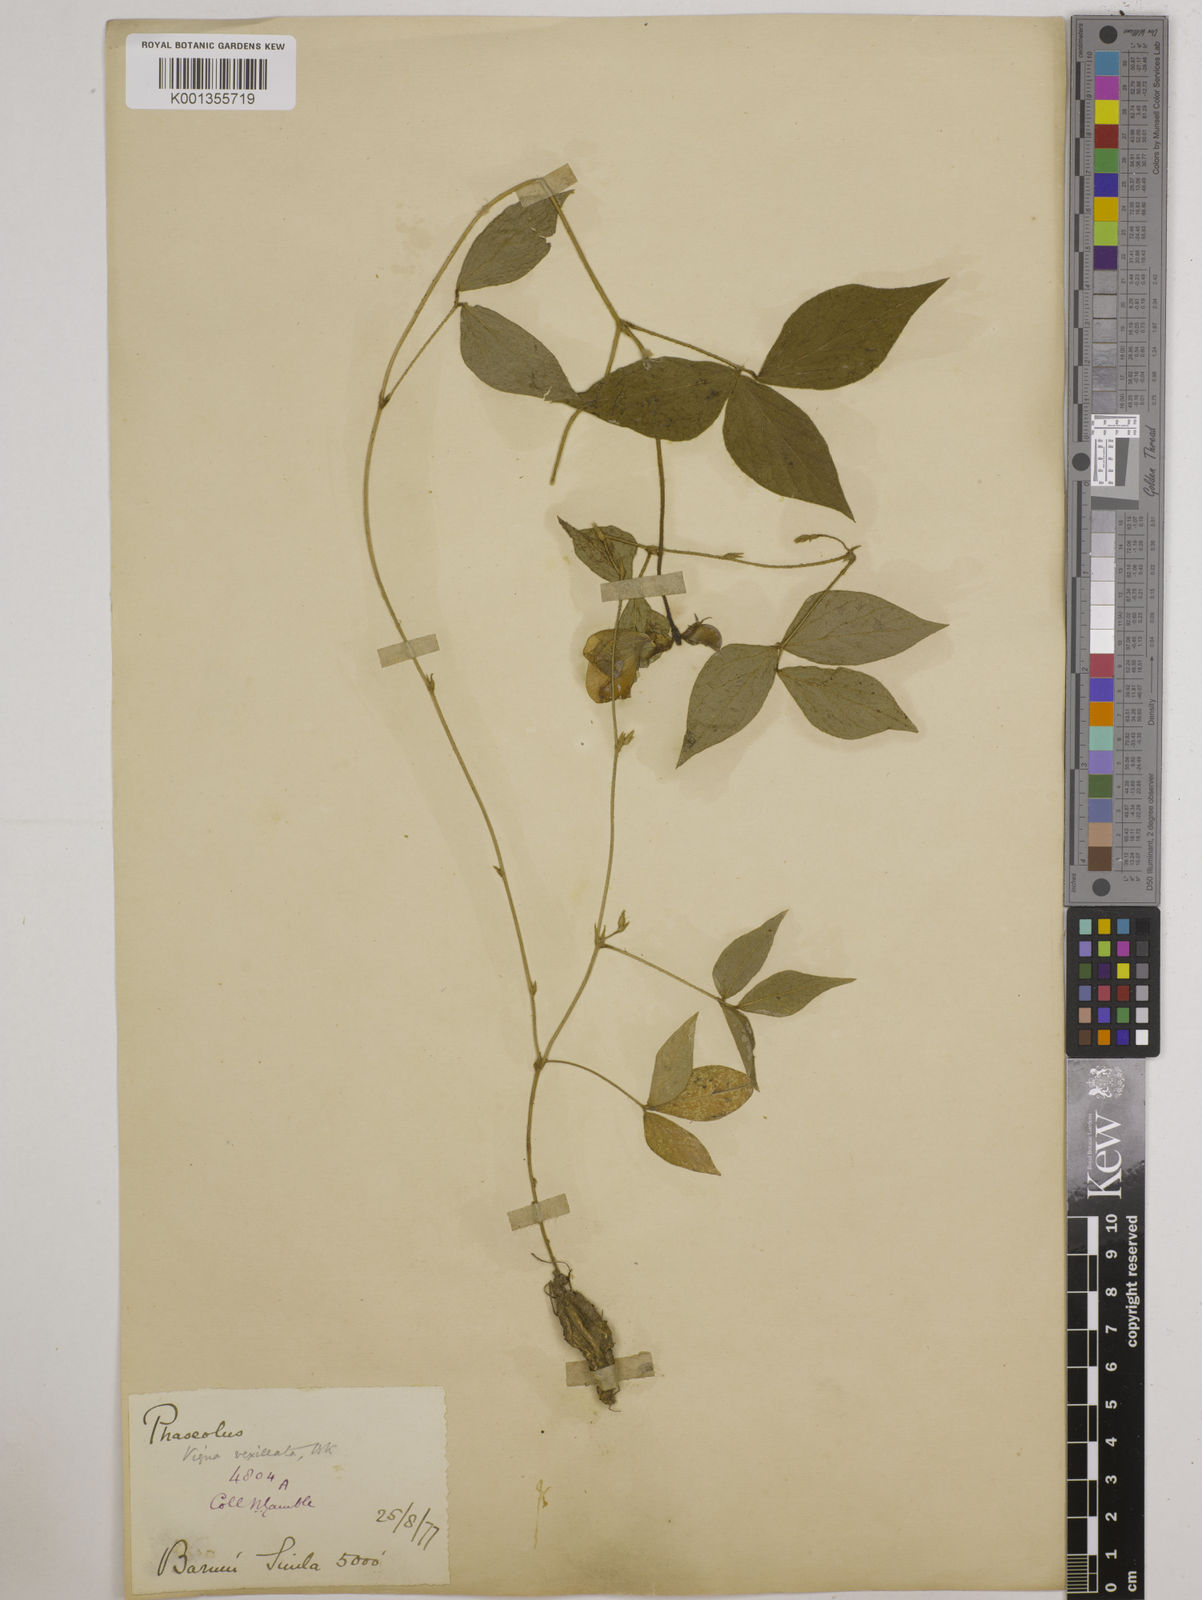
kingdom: Plantae
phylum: Tracheophyta
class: Magnoliopsida
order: Fabales
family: Fabaceae
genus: Vigna
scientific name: Vigna vexillata
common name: Zombi pea
